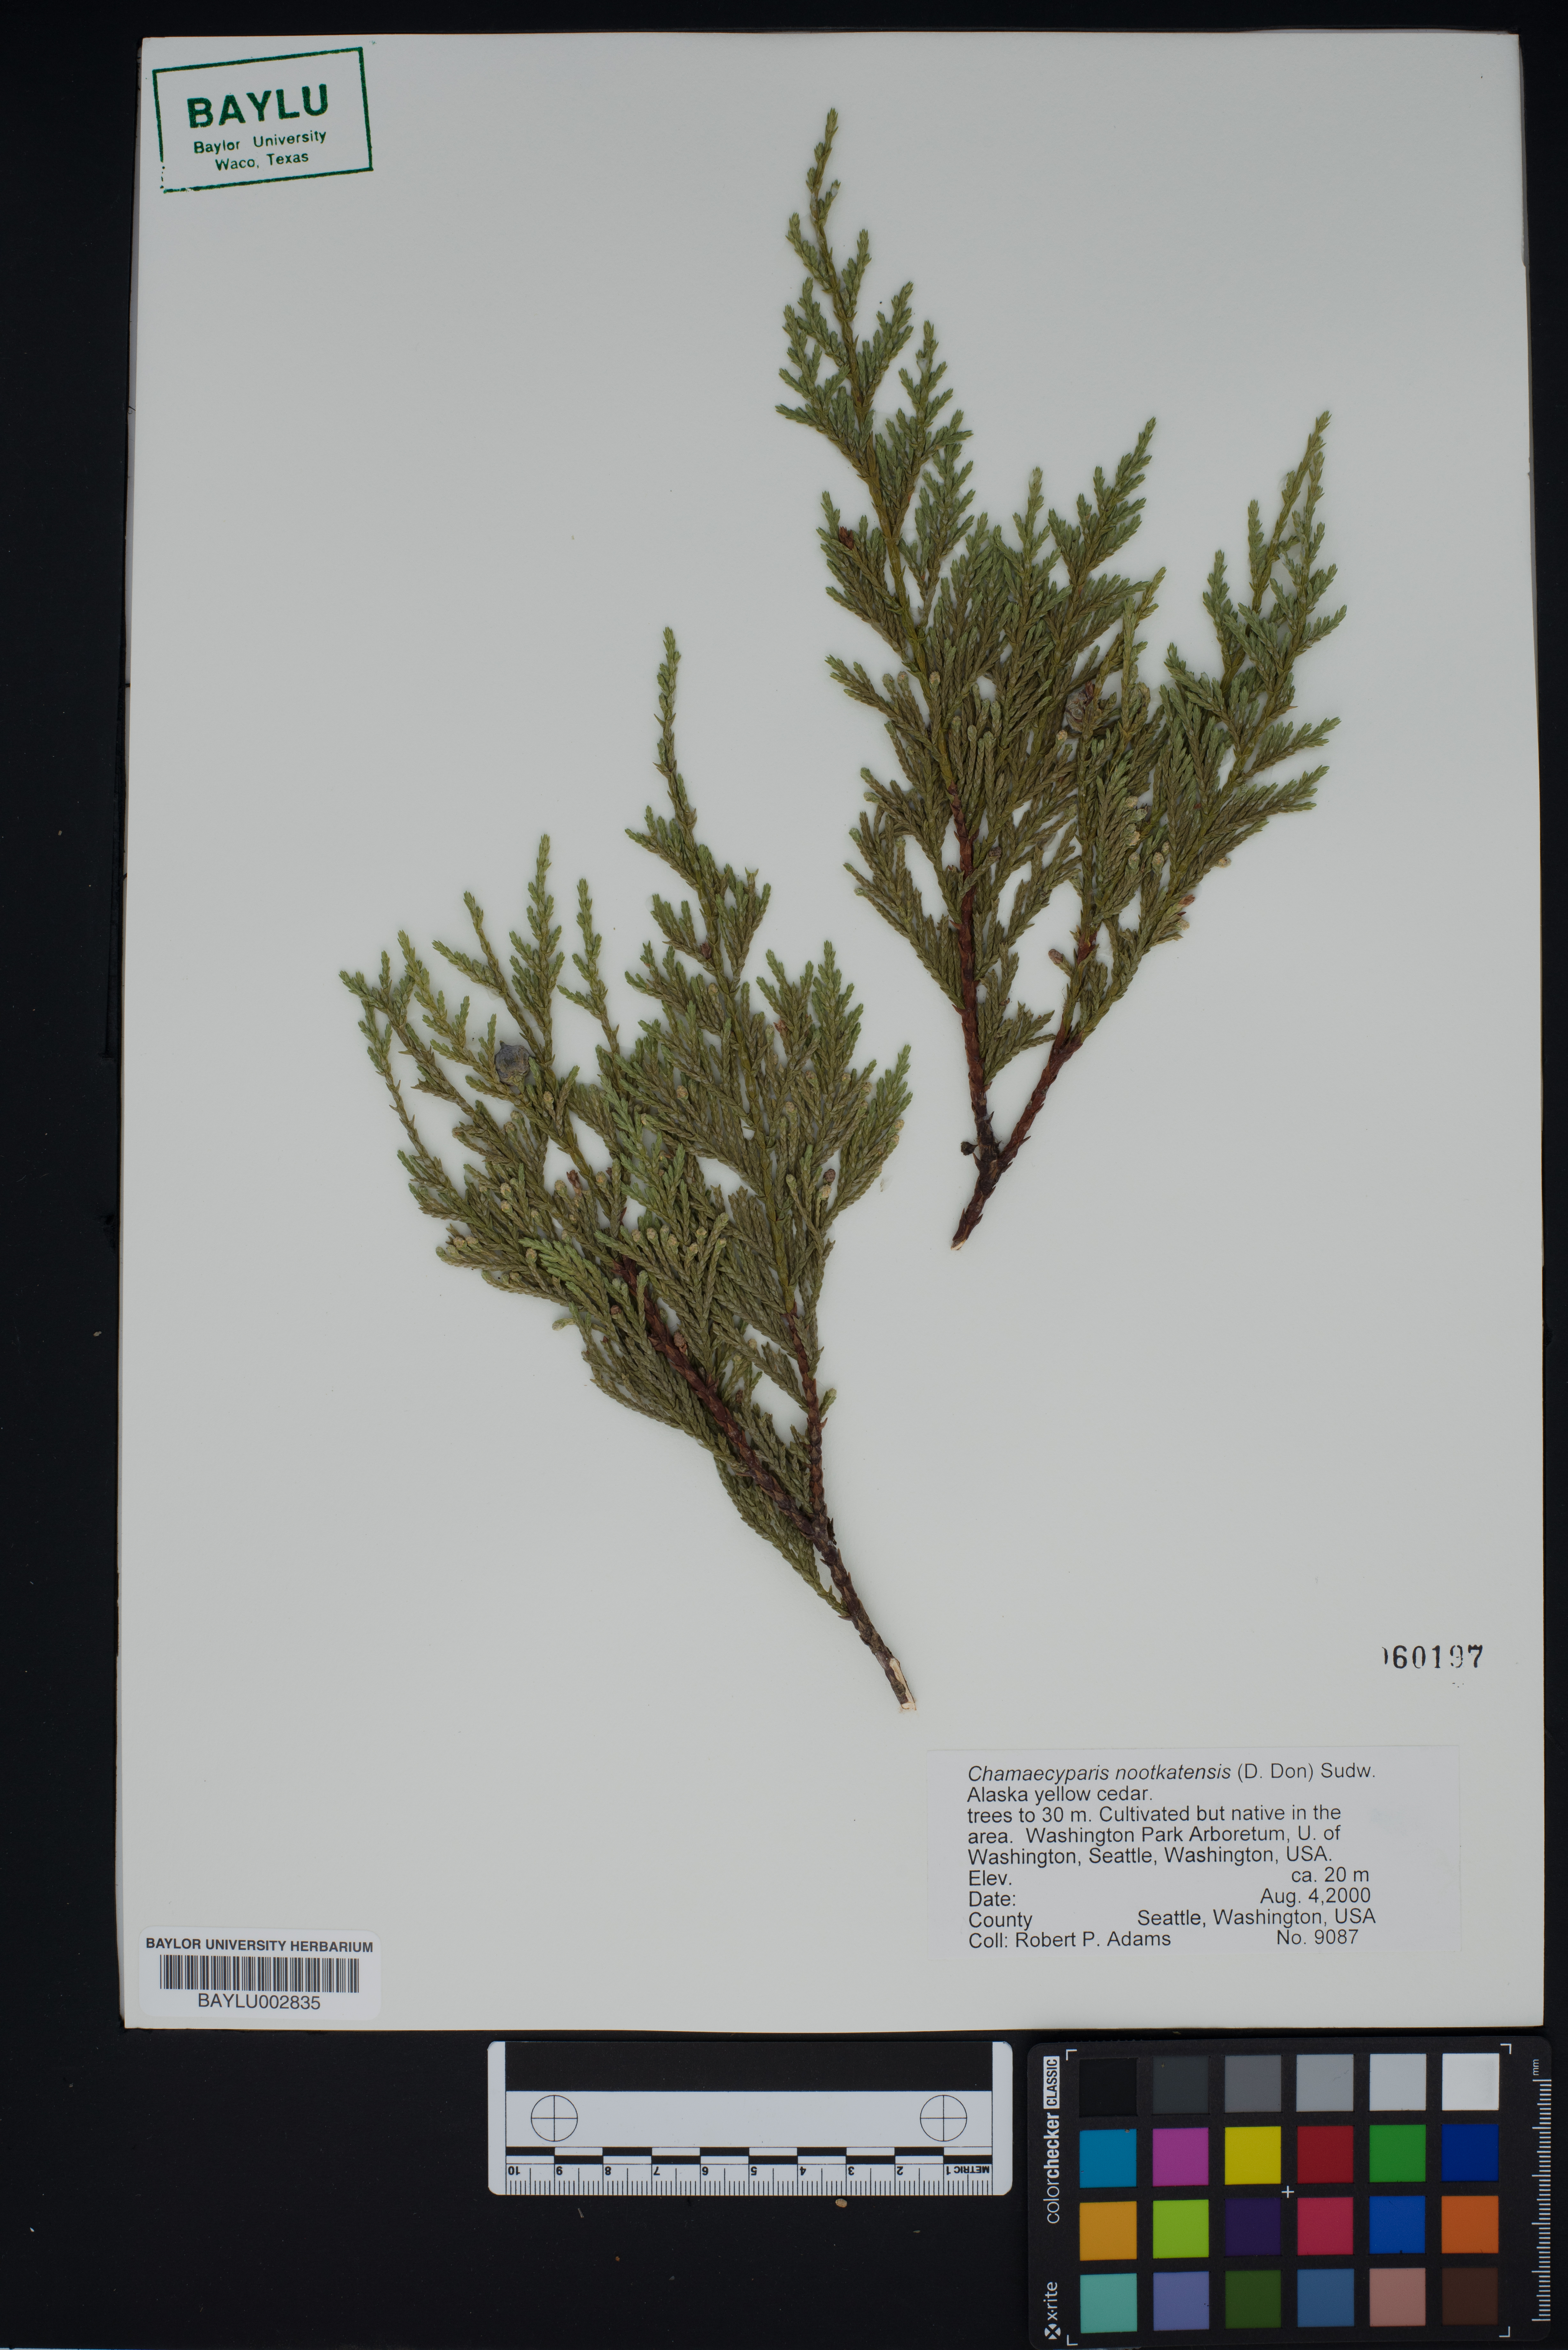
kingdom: Plantae
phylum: Tracheophyta
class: Pinopsida
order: Pinales
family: Cupressaceae
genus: Xanthocyparis
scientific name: Xanthocyparis nootkatensis
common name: Nootka cypress
